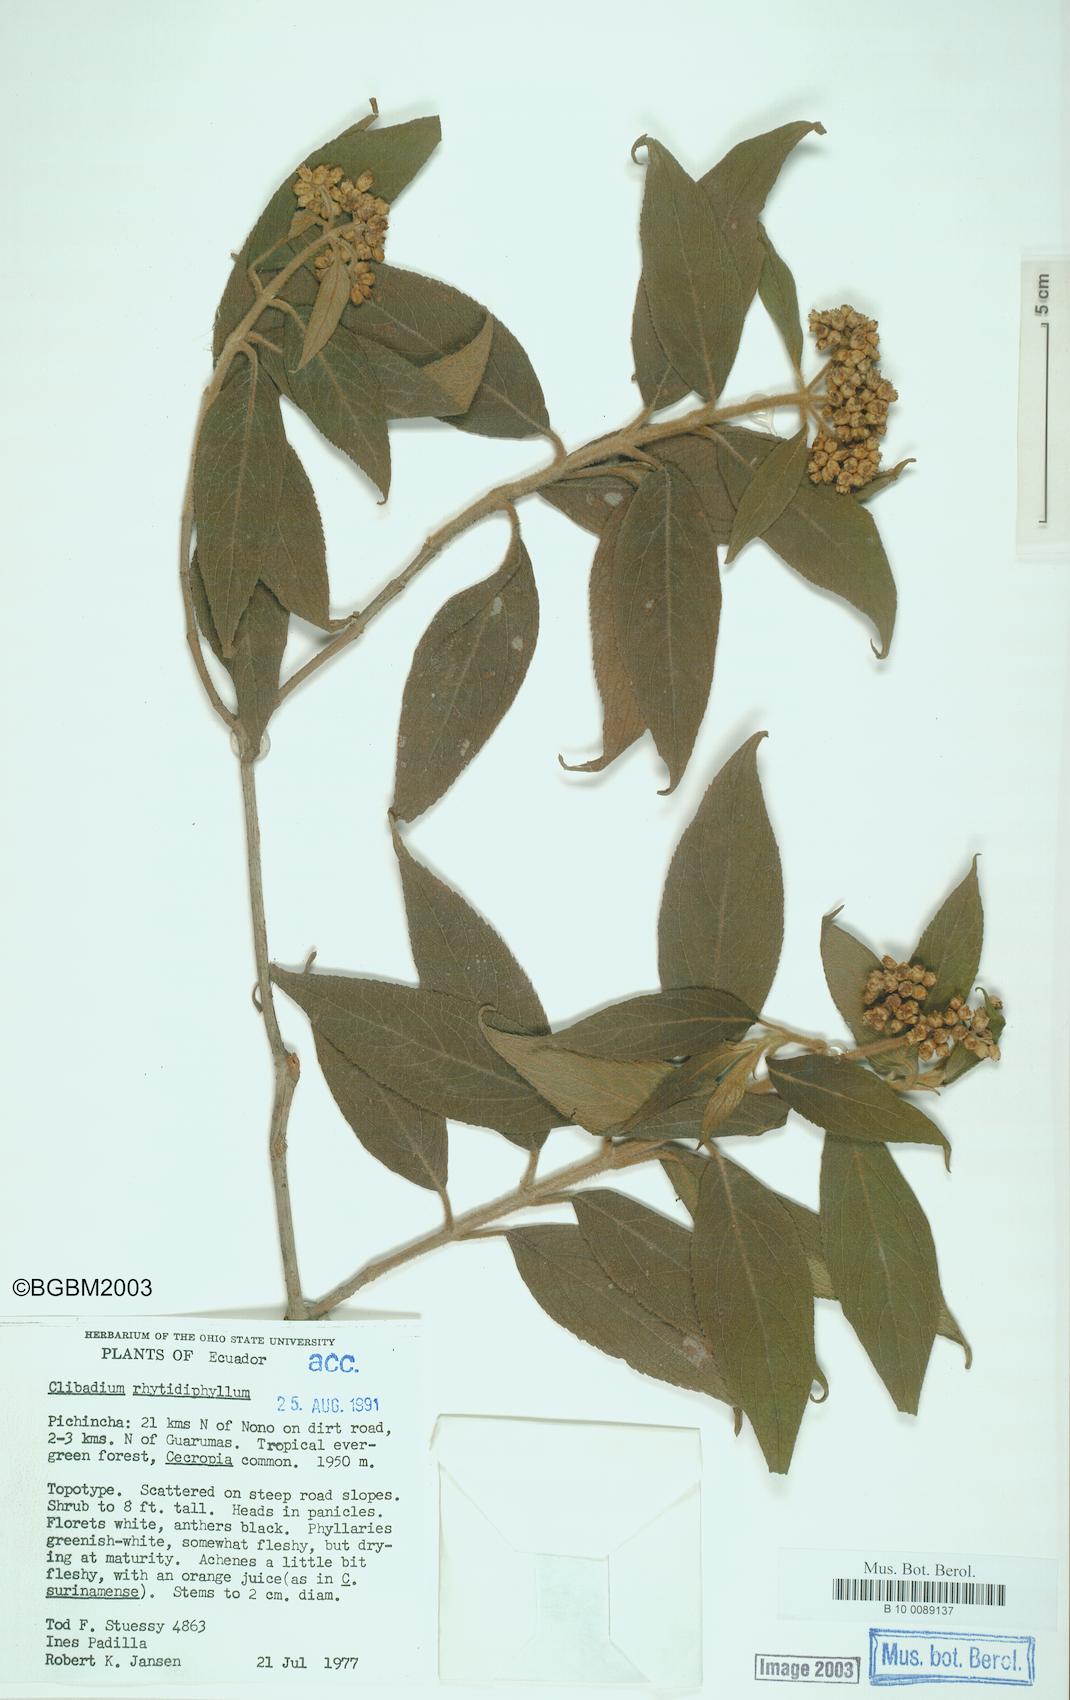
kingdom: Plantae
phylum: Tracheophyta
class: Magnoliopsida
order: Asterales
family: Asteraceae
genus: Clibadium
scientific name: Clibadium rhytidophyllum
